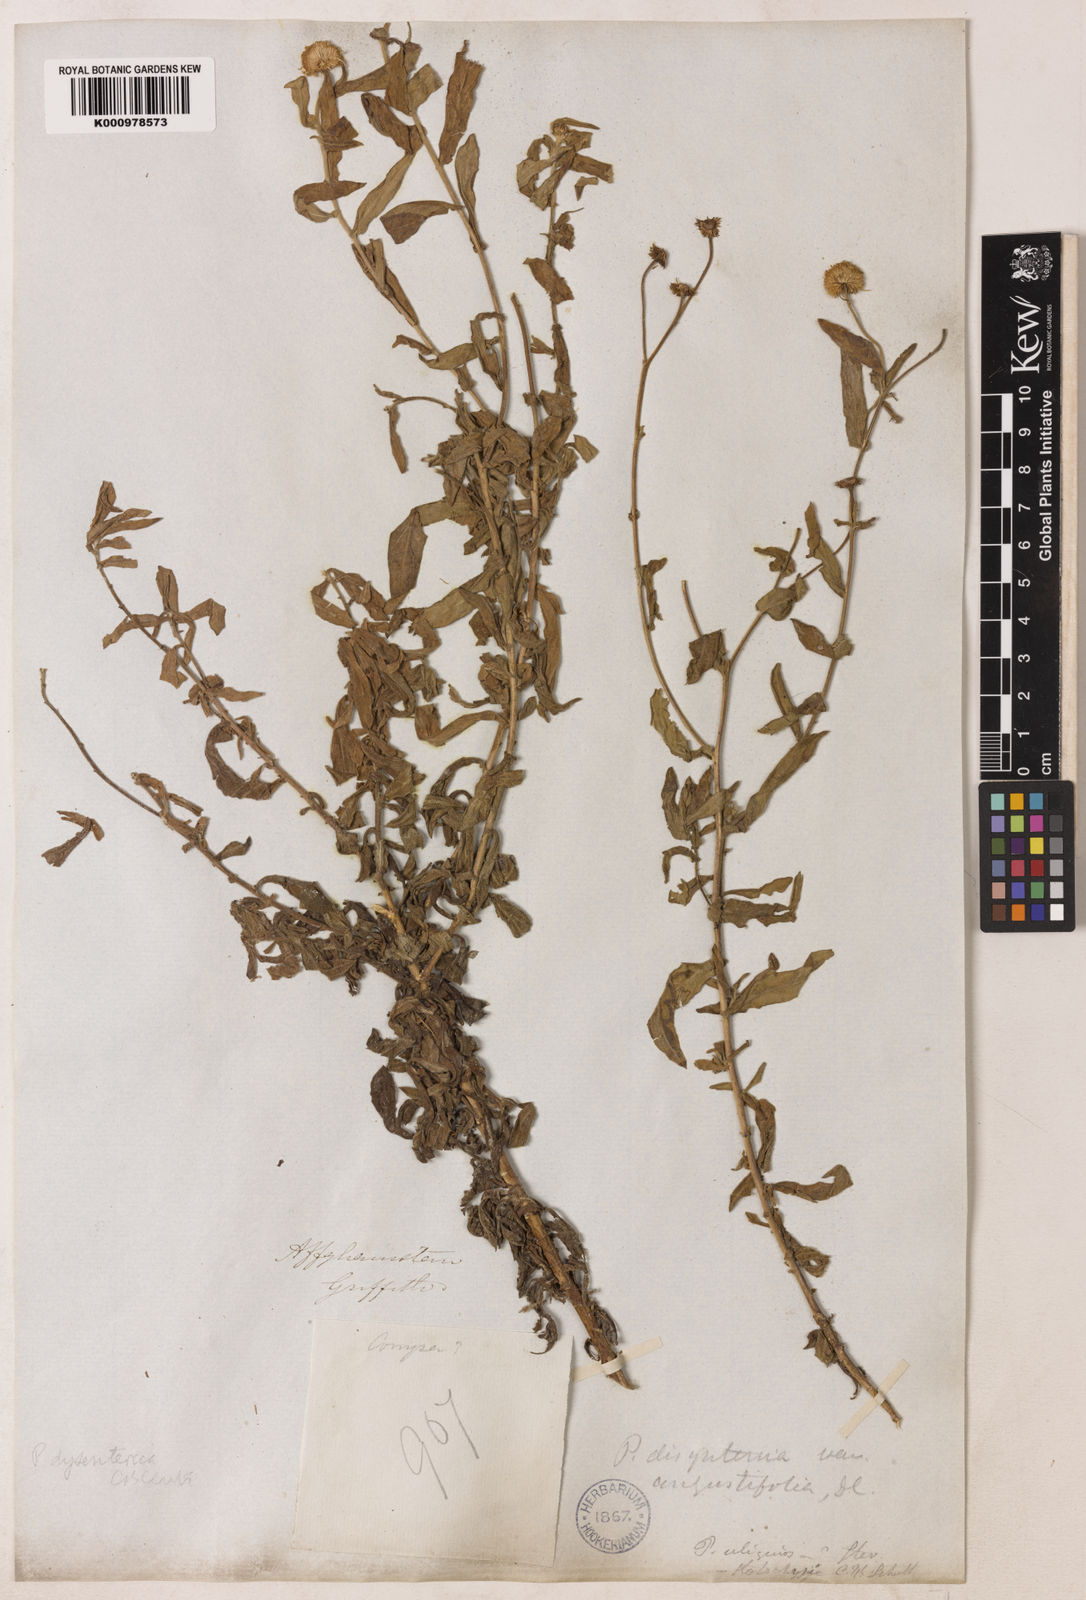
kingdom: Plantae
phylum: Tracheophyta
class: Magnoliopsida
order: Asterales
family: Asteraceae
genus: Pulicaria
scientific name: Pulicaria
